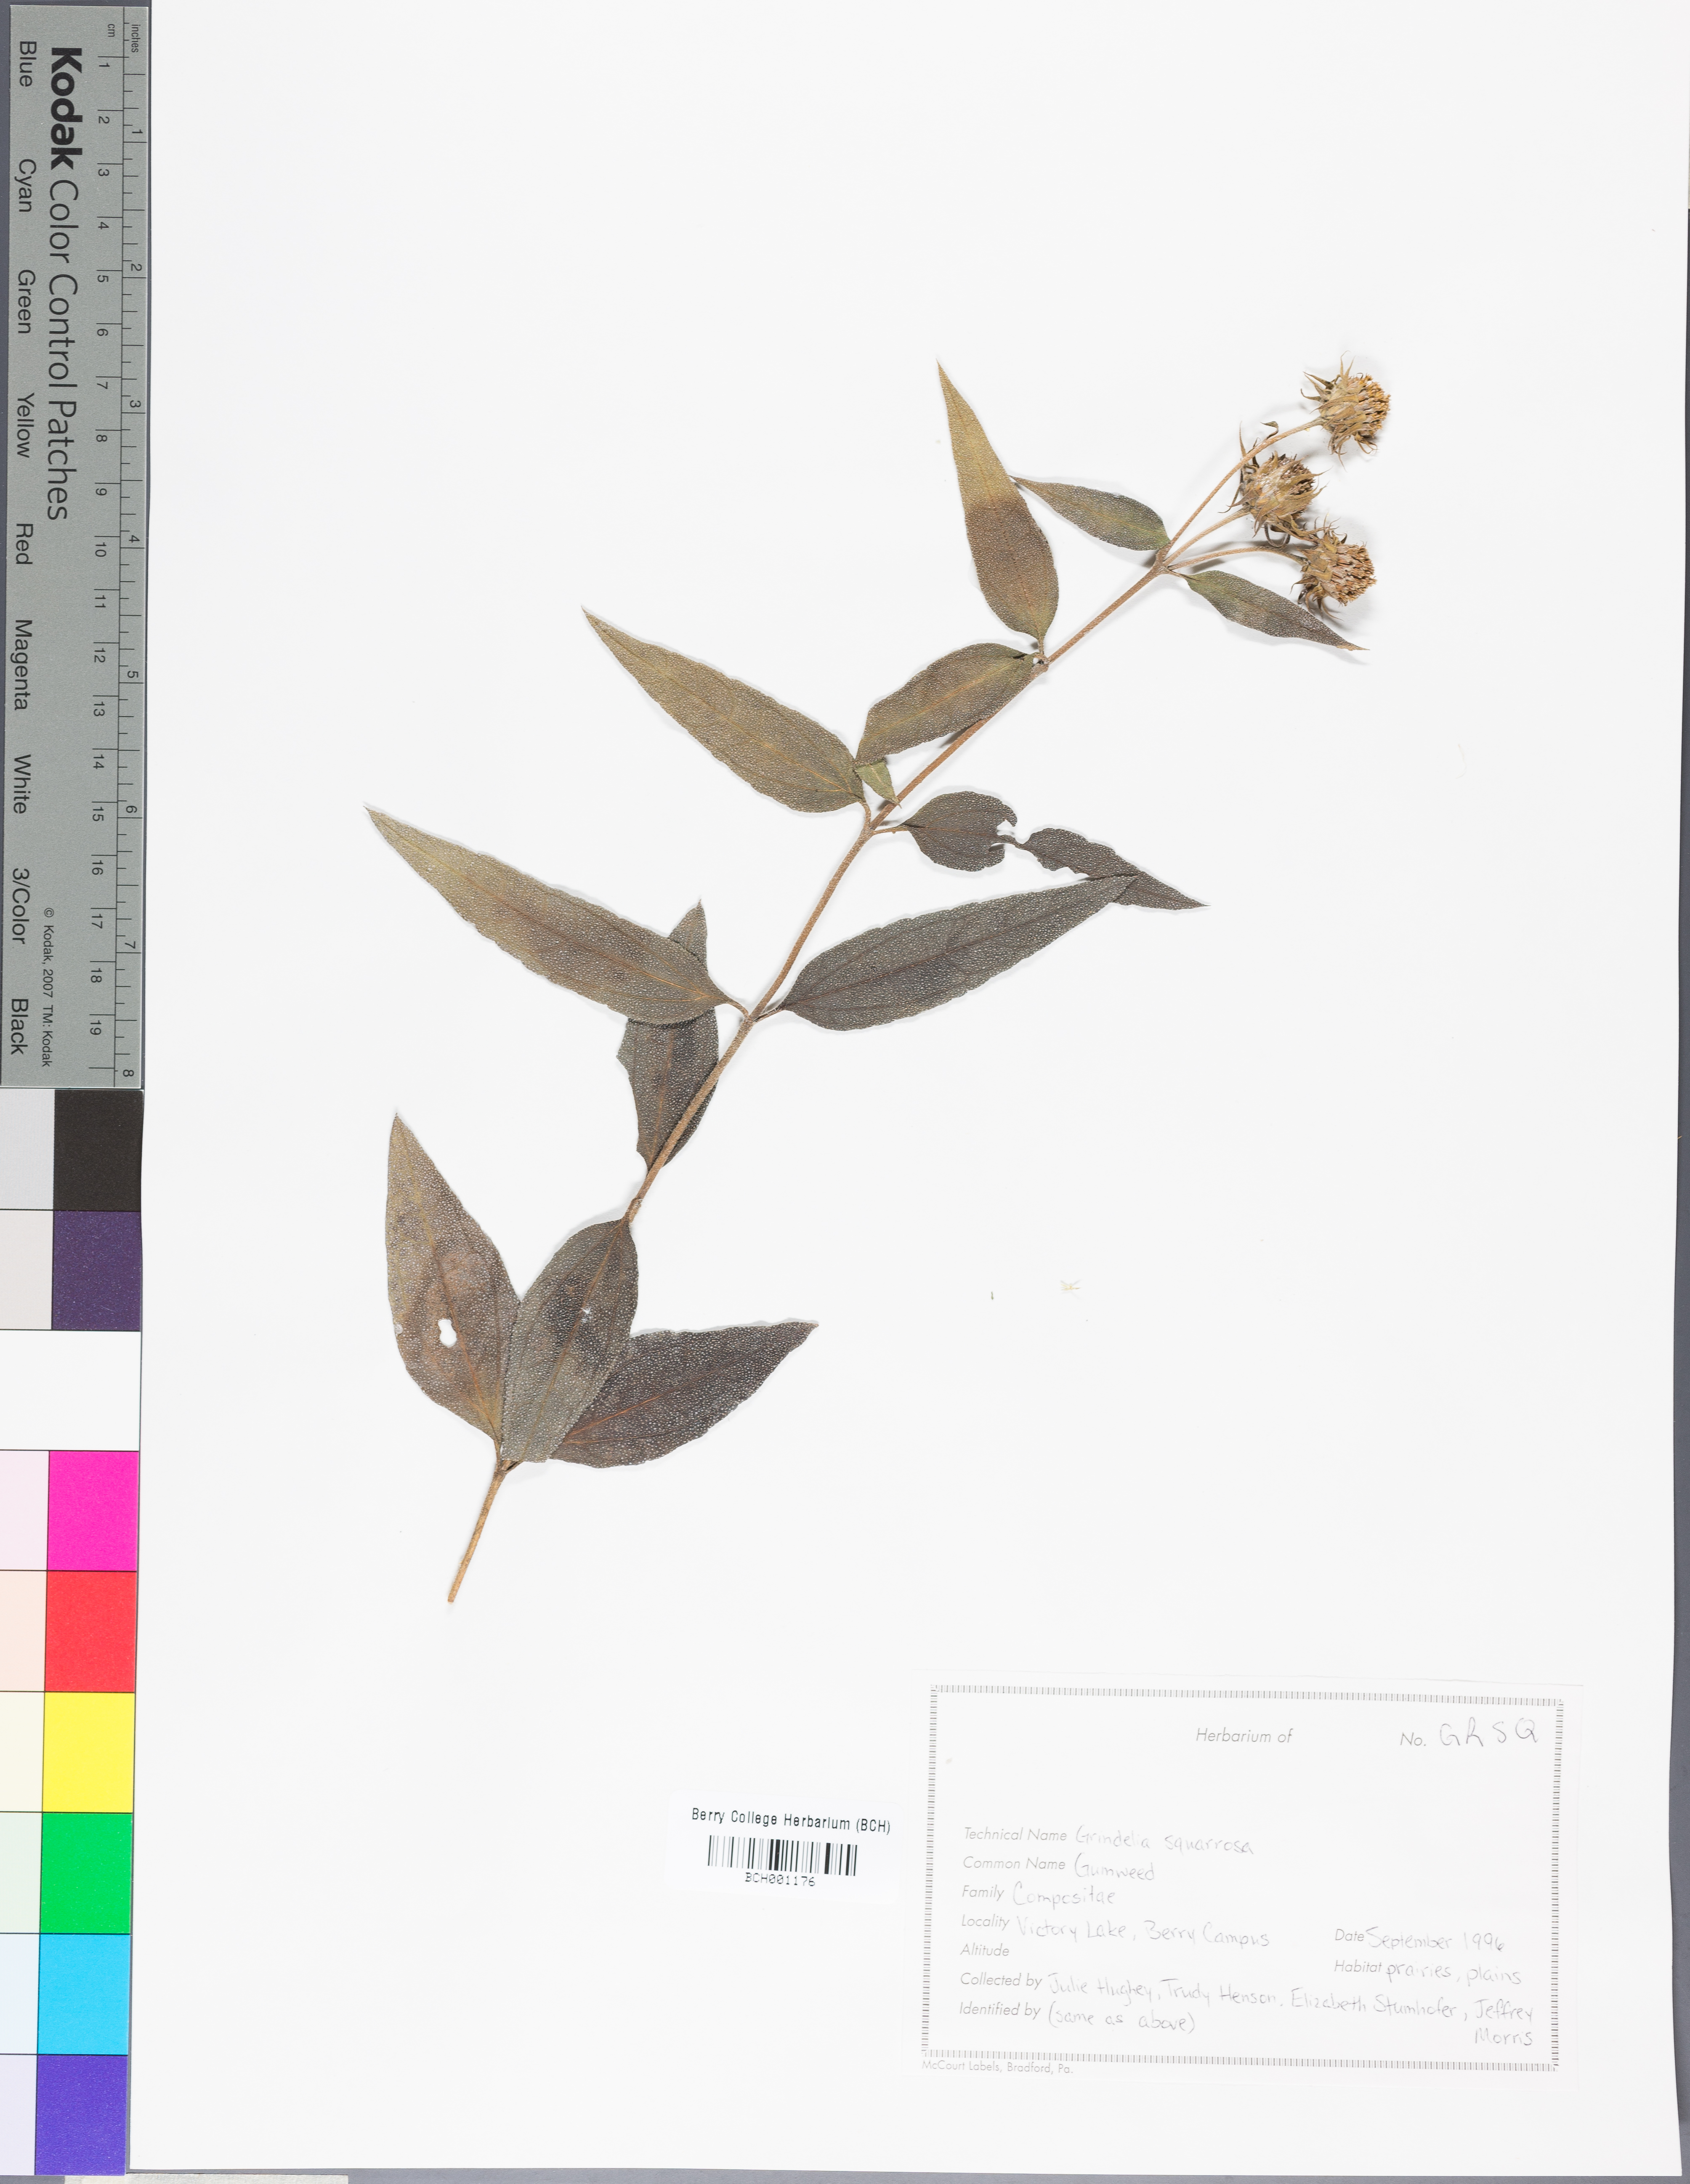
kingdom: Plantae
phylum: Tracheophyta
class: Magnoliopsida
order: Asterales
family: Asteraceae
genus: Grindelia
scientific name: Grindelia squarrosa
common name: Curly-cup gumweed
